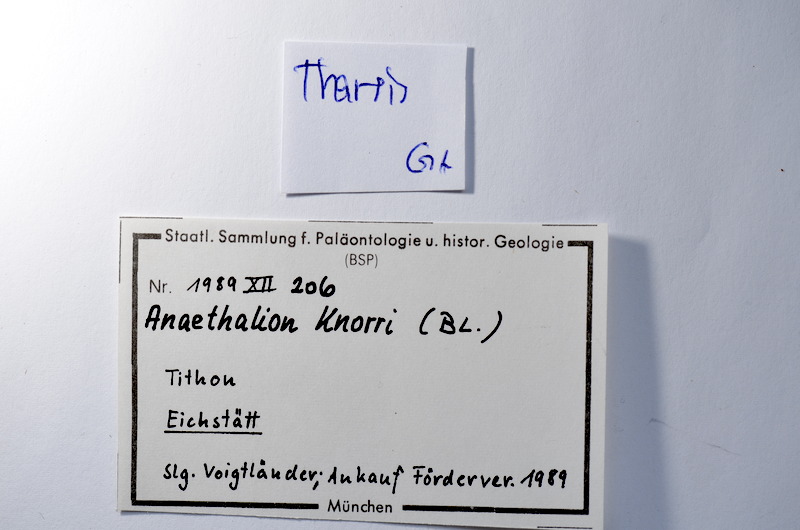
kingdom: Animalia
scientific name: Animalia
